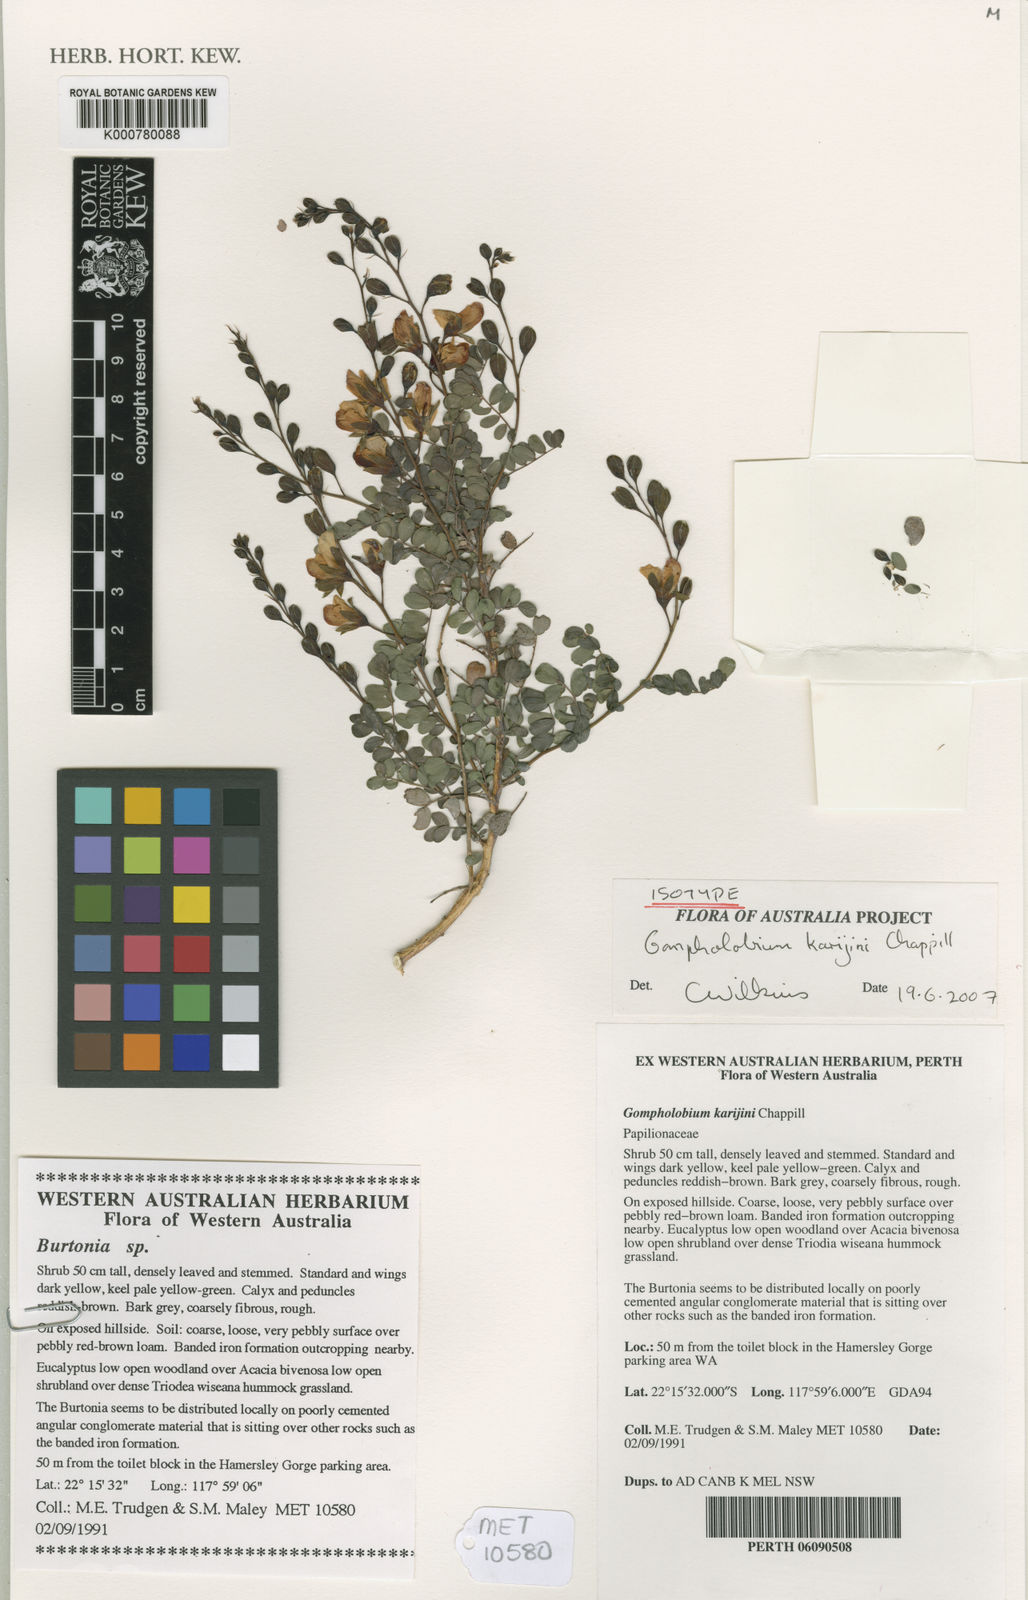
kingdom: Plantae
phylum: Tracheophyta
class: Magnoliopsida
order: Fabales
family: Fabaceae
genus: Gompholobium
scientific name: Gompholobium karijini
